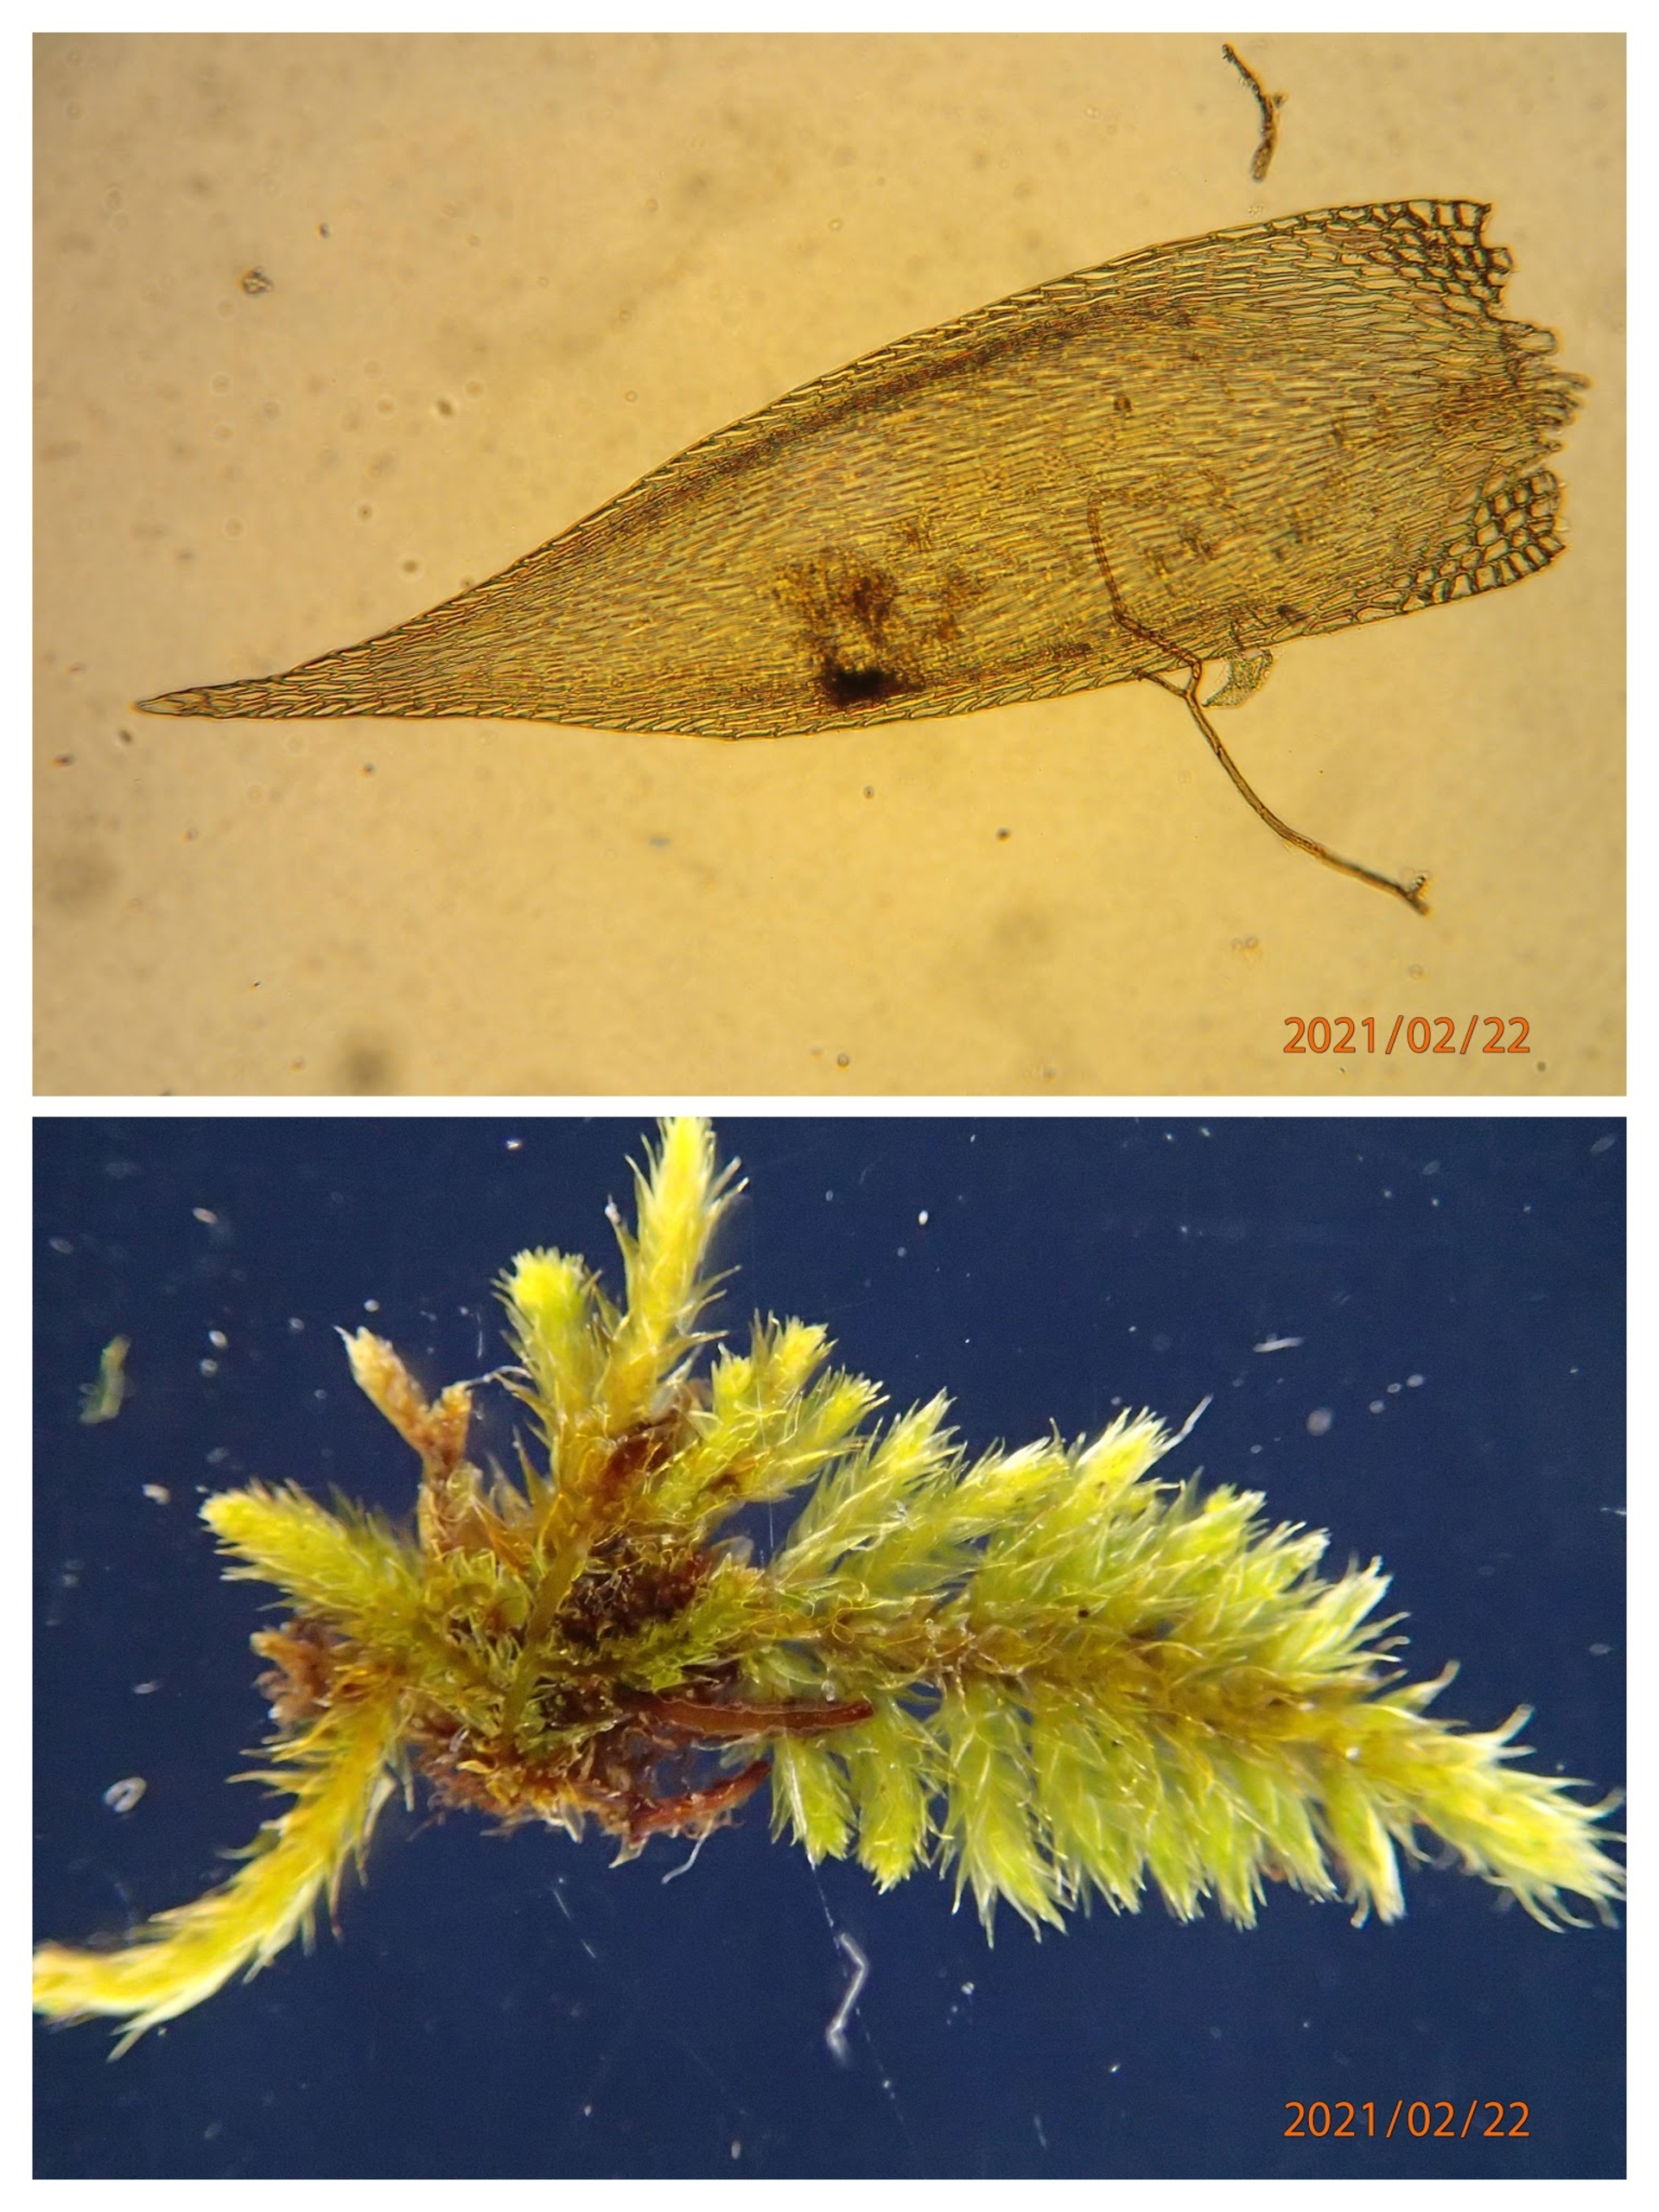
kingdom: Plantae
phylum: Bryophyta
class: Bryopsida
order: Hypnales
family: Pylaisiadelphaceae
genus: Platygyrium
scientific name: Platygyrium repens
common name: Mørk yngleknop
